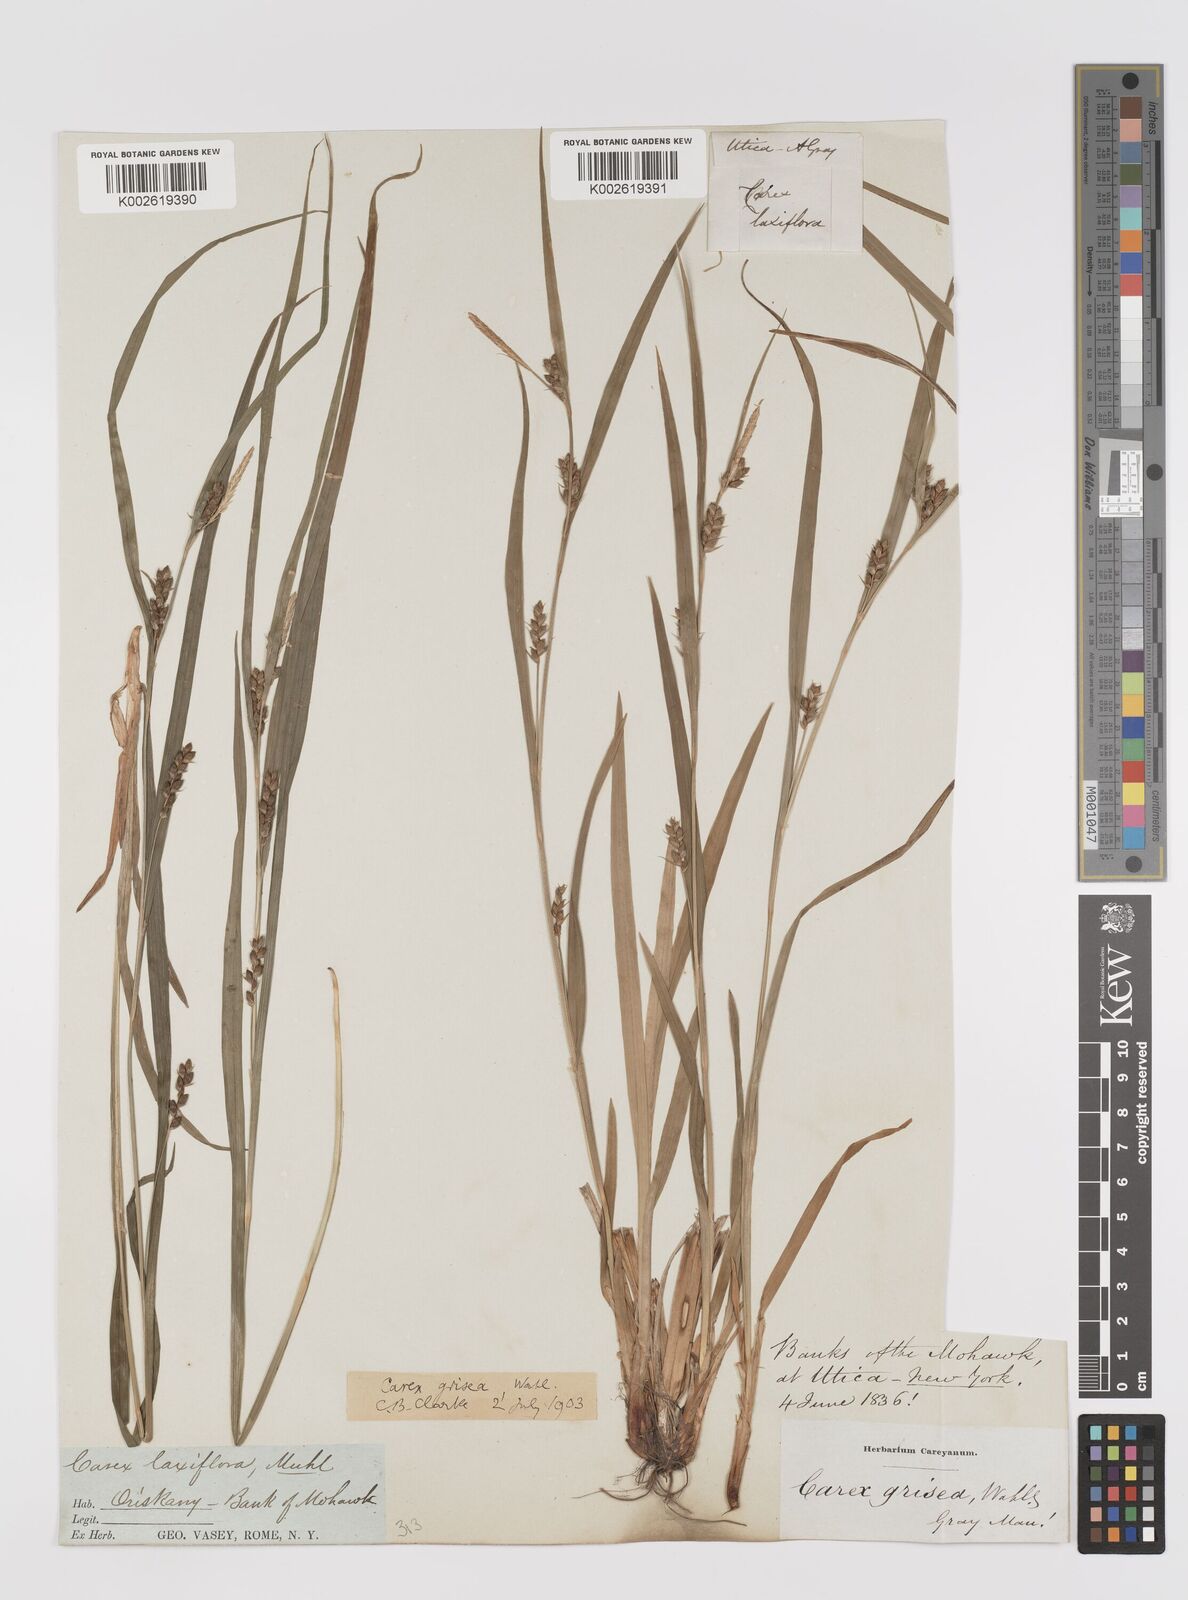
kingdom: Plantae
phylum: Tracheophyta
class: Liliopsida
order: Poales
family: Cyperaceae
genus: Carex
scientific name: Carex grisea
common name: Eastern narrow-leaved sedge
